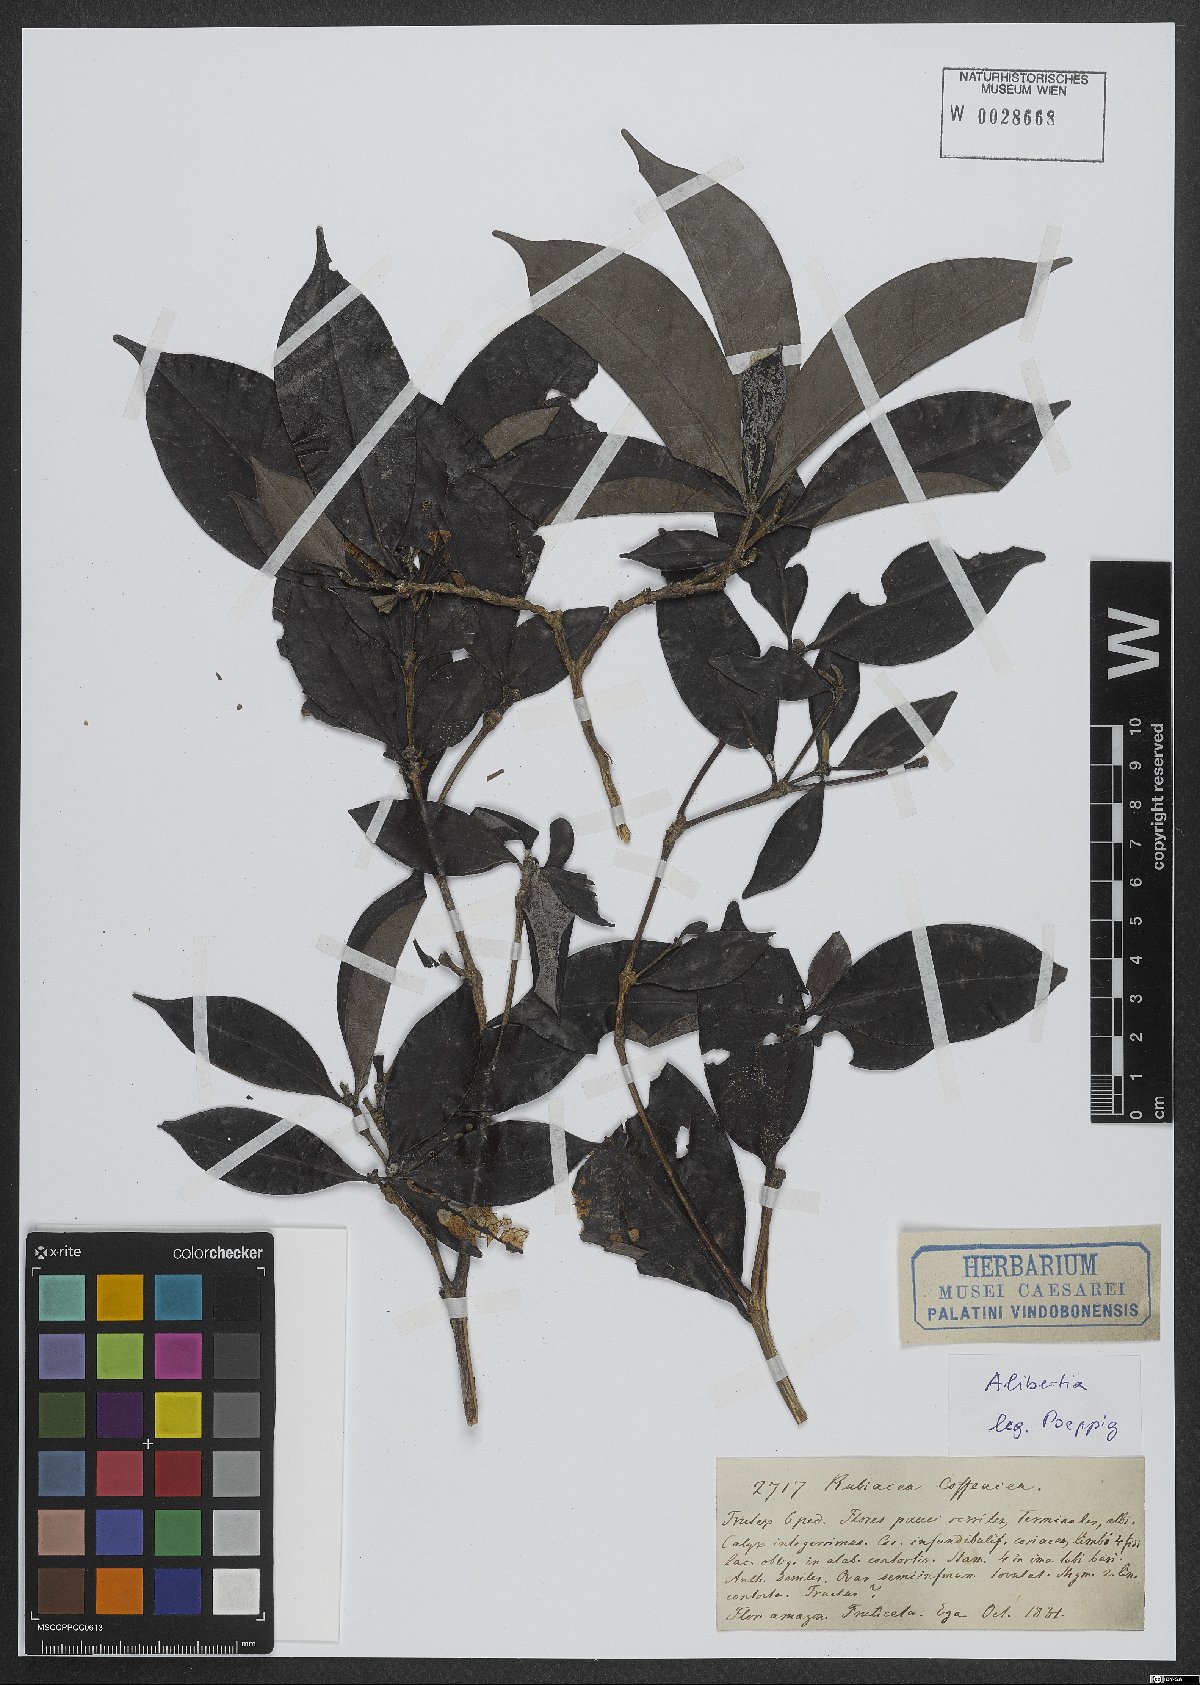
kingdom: Plantae
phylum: Tracheophyta
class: Magnoliopsida
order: Gentianales
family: Rubiaceae
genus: Alibertia
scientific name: Alibertia
